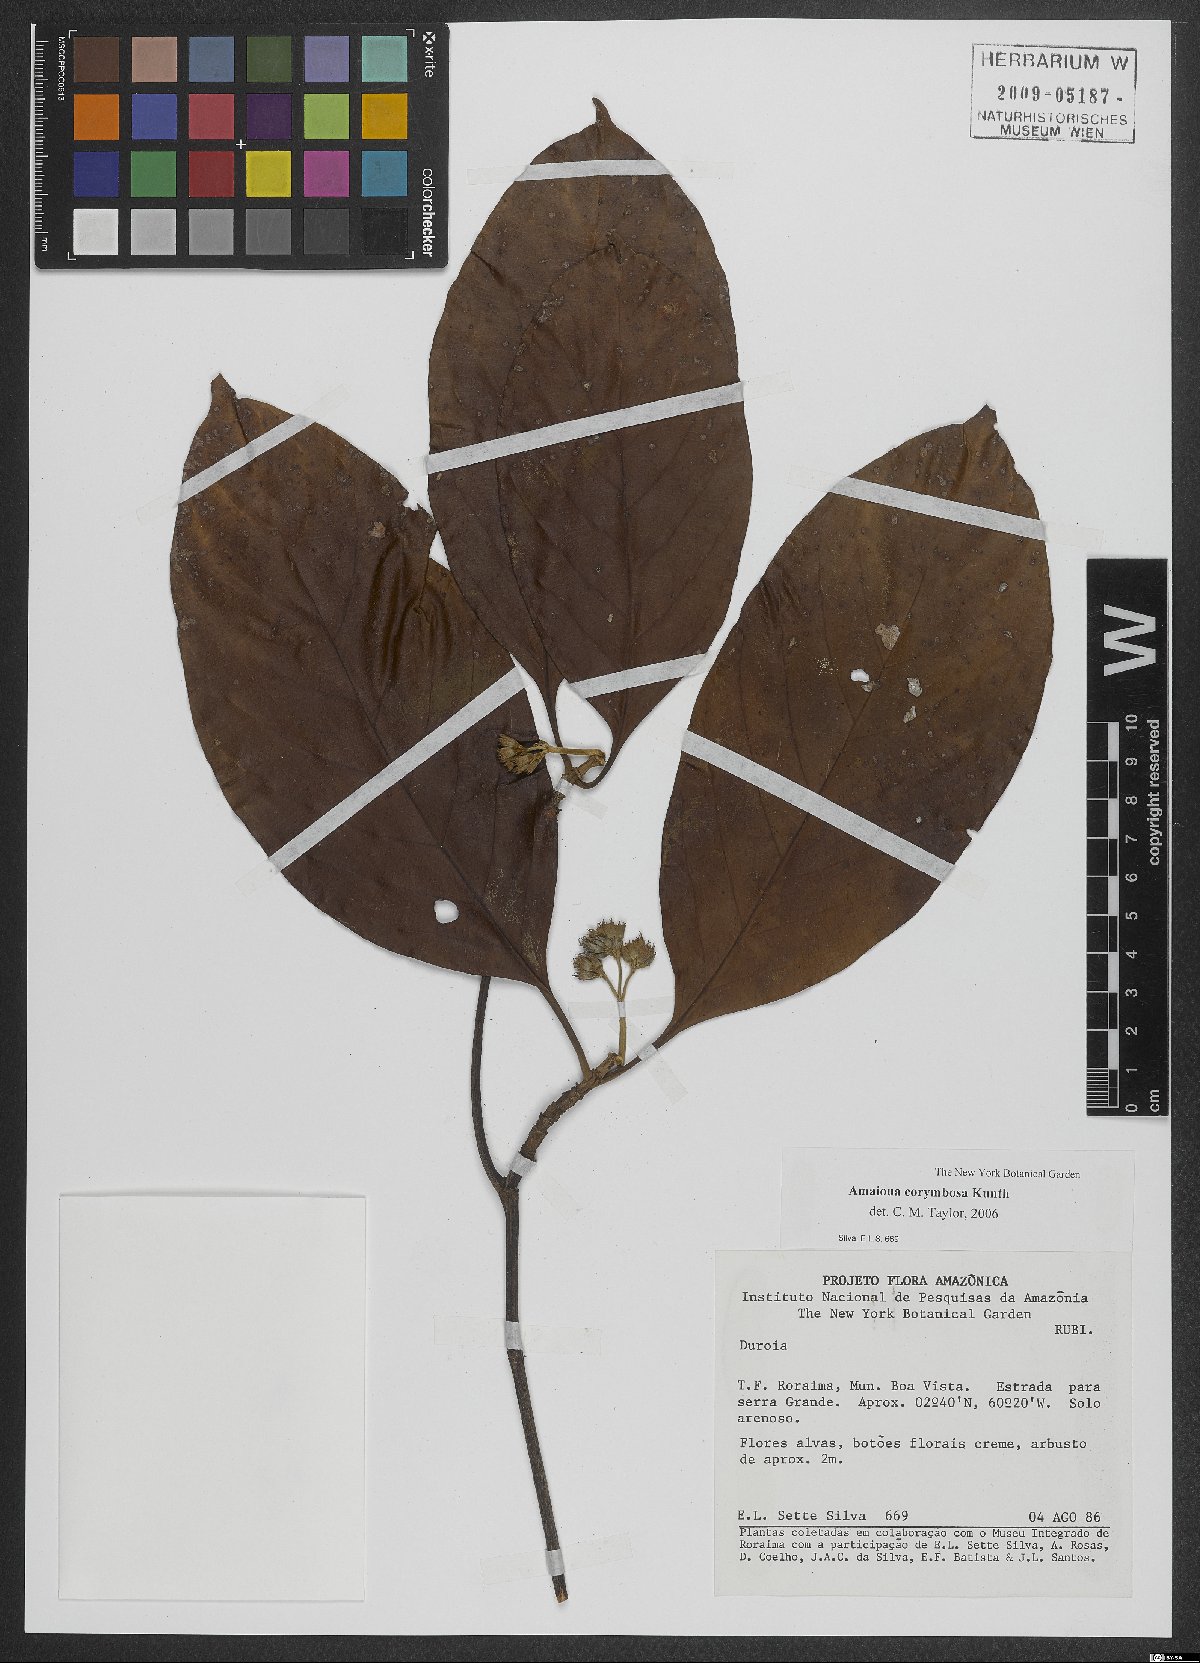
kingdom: Plantae
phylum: Tracheophyta
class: Magnoliopsida
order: Gentianales
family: Rubiaceae
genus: Amaioua
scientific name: Amaioua glomerulata
